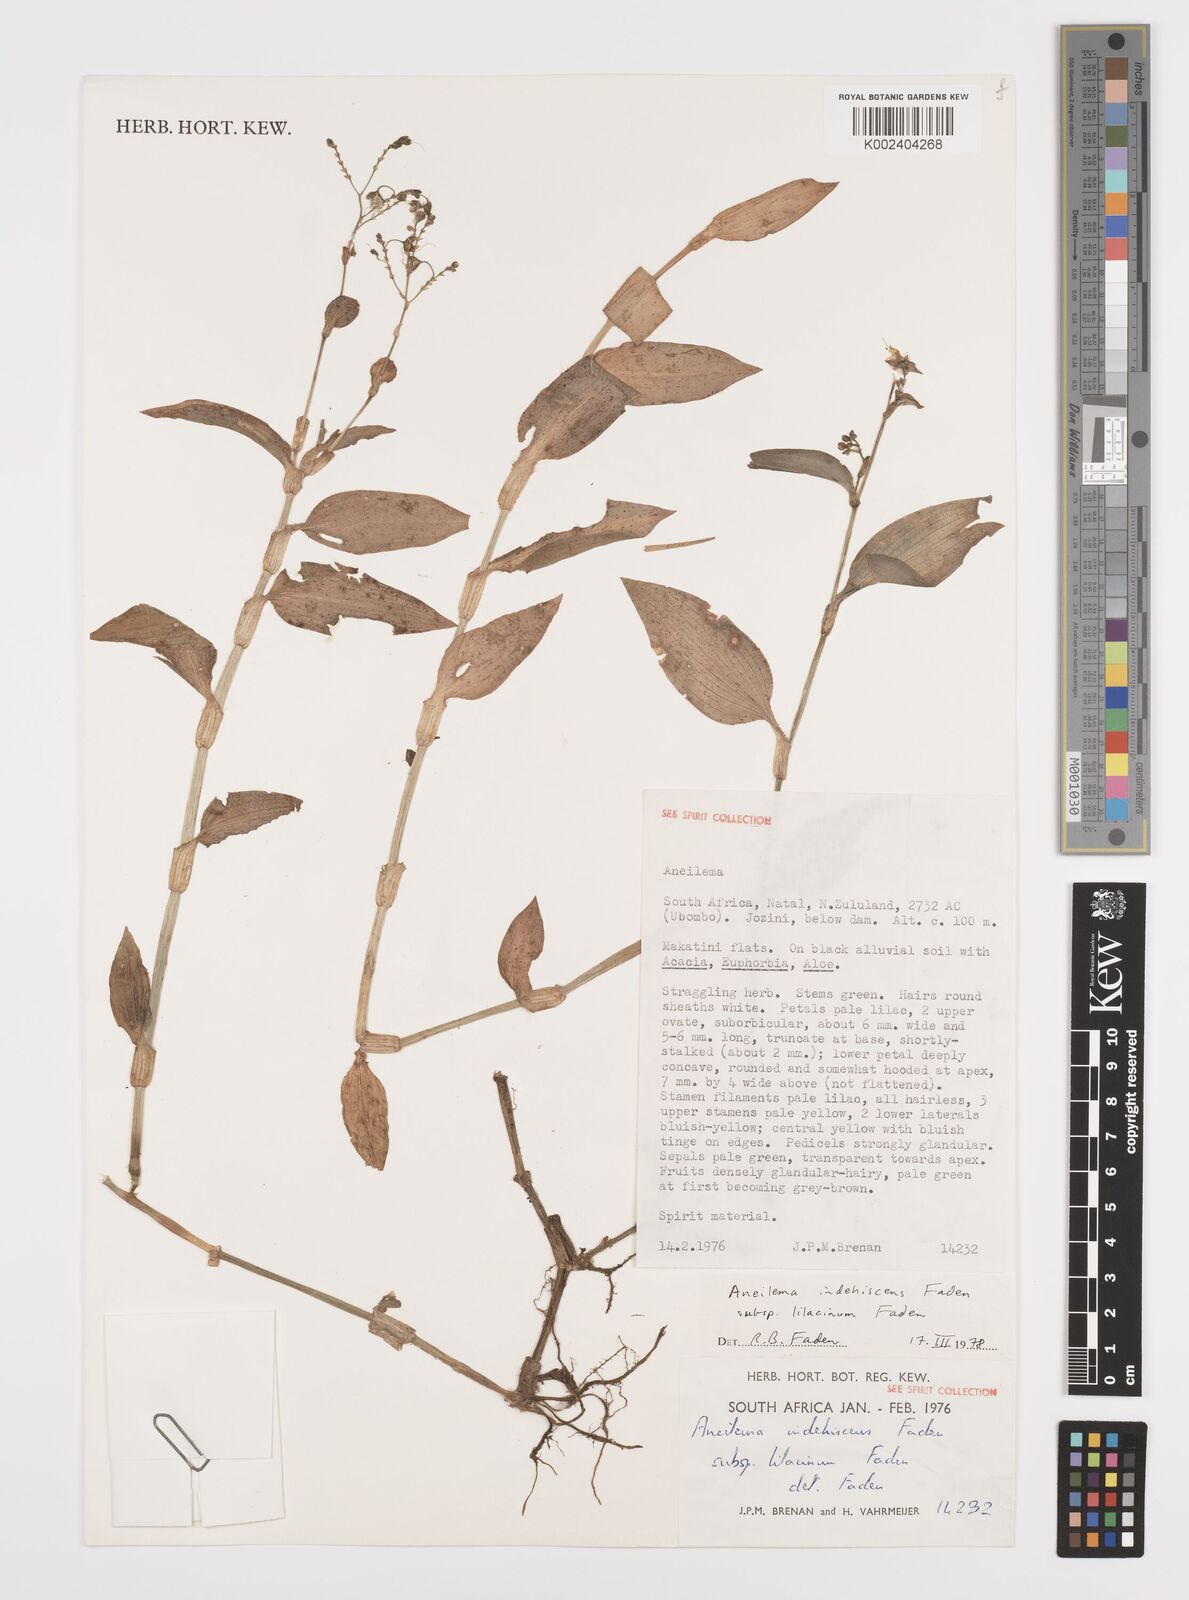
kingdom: Plantae
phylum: Tracheophyta
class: Liliopsida
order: Commelinales
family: Commelinaceae
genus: Aneilema
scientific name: Aneilema indehiscens
